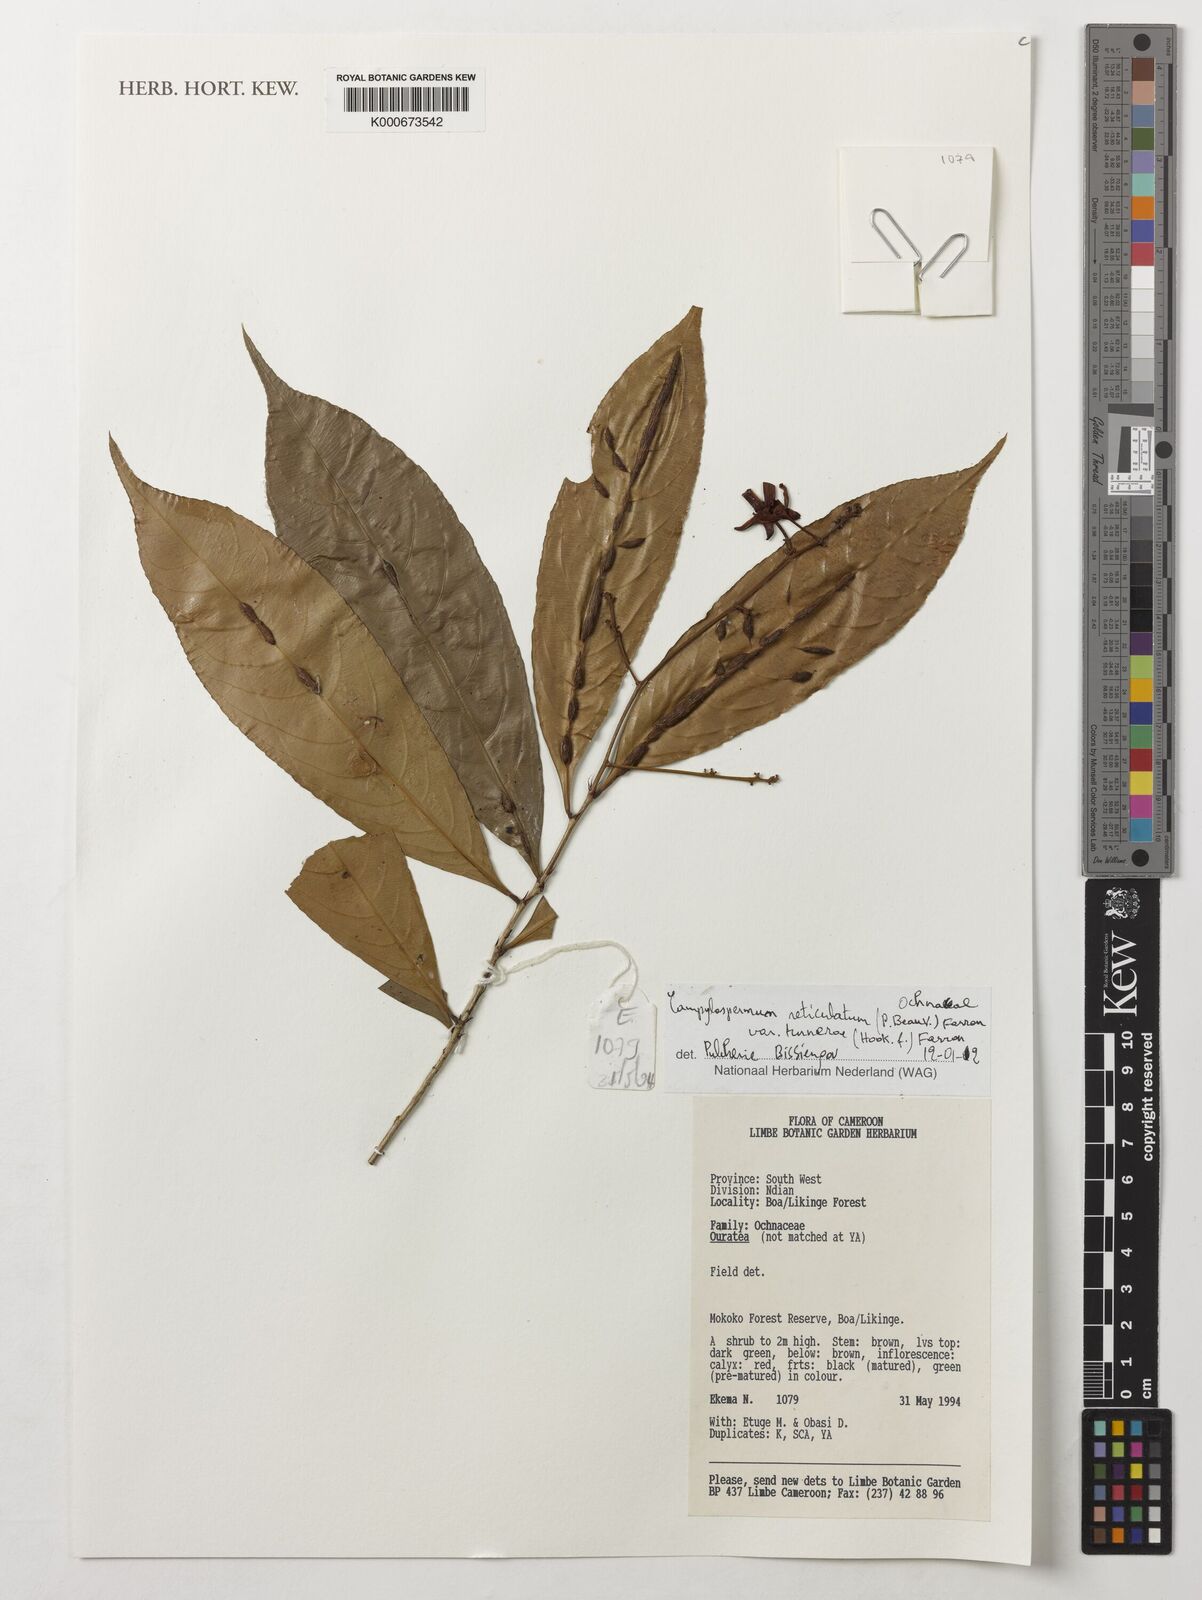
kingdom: Plantae
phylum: Tracheophyta
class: Magnoliopsida
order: Malpighiales
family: Ochnaceae
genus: Campylospermum
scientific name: Campylospermum reticulatum
